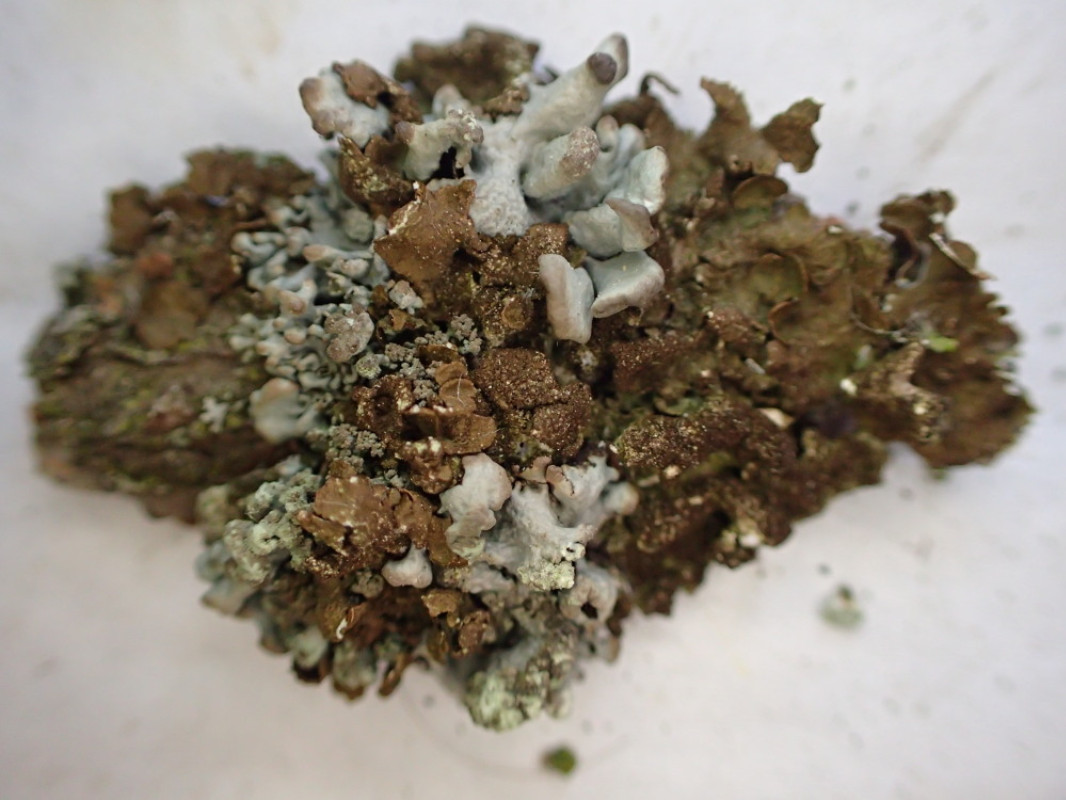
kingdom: Fungi
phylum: Ascomycota
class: Lecanoromycetes
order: Lecanorales
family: Parmeliaceae
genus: Melanelixia
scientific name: Melanelixia subaurifera
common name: guldpudret skållav
